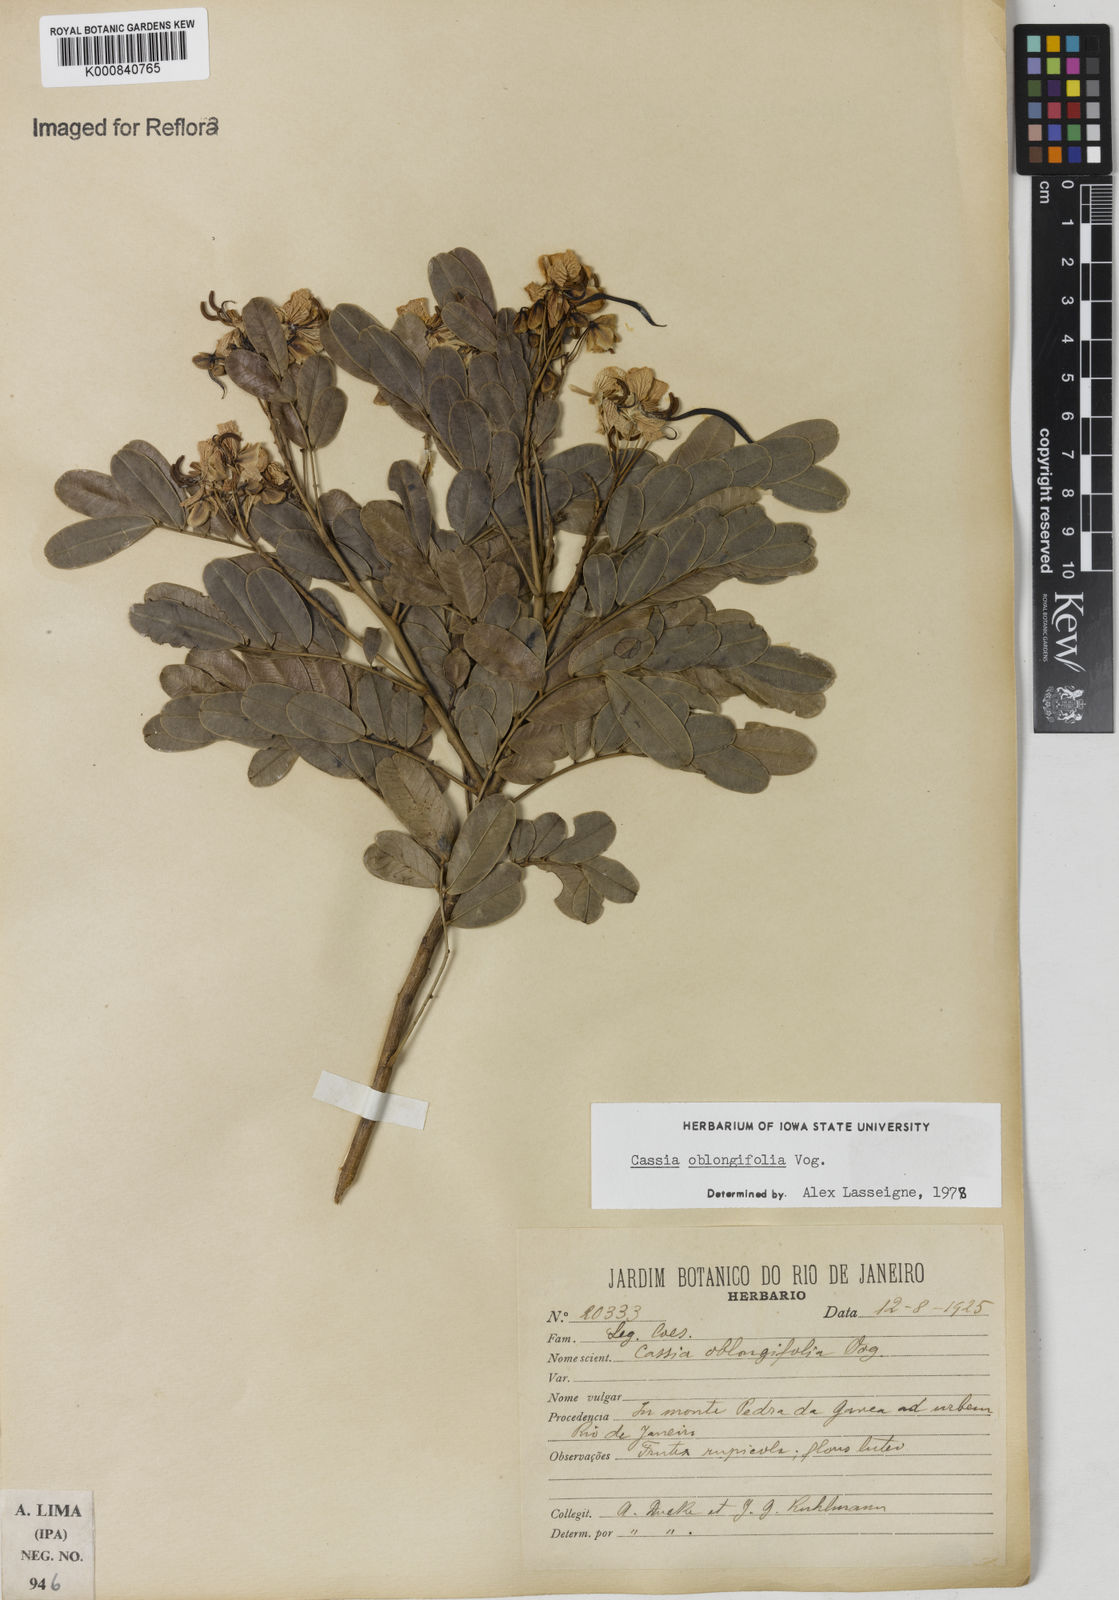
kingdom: Plantae
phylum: Tracheophyta
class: Magnoliopsida
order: Fabales
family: Fabaceae
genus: Senna
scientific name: Senna oblongifolia
